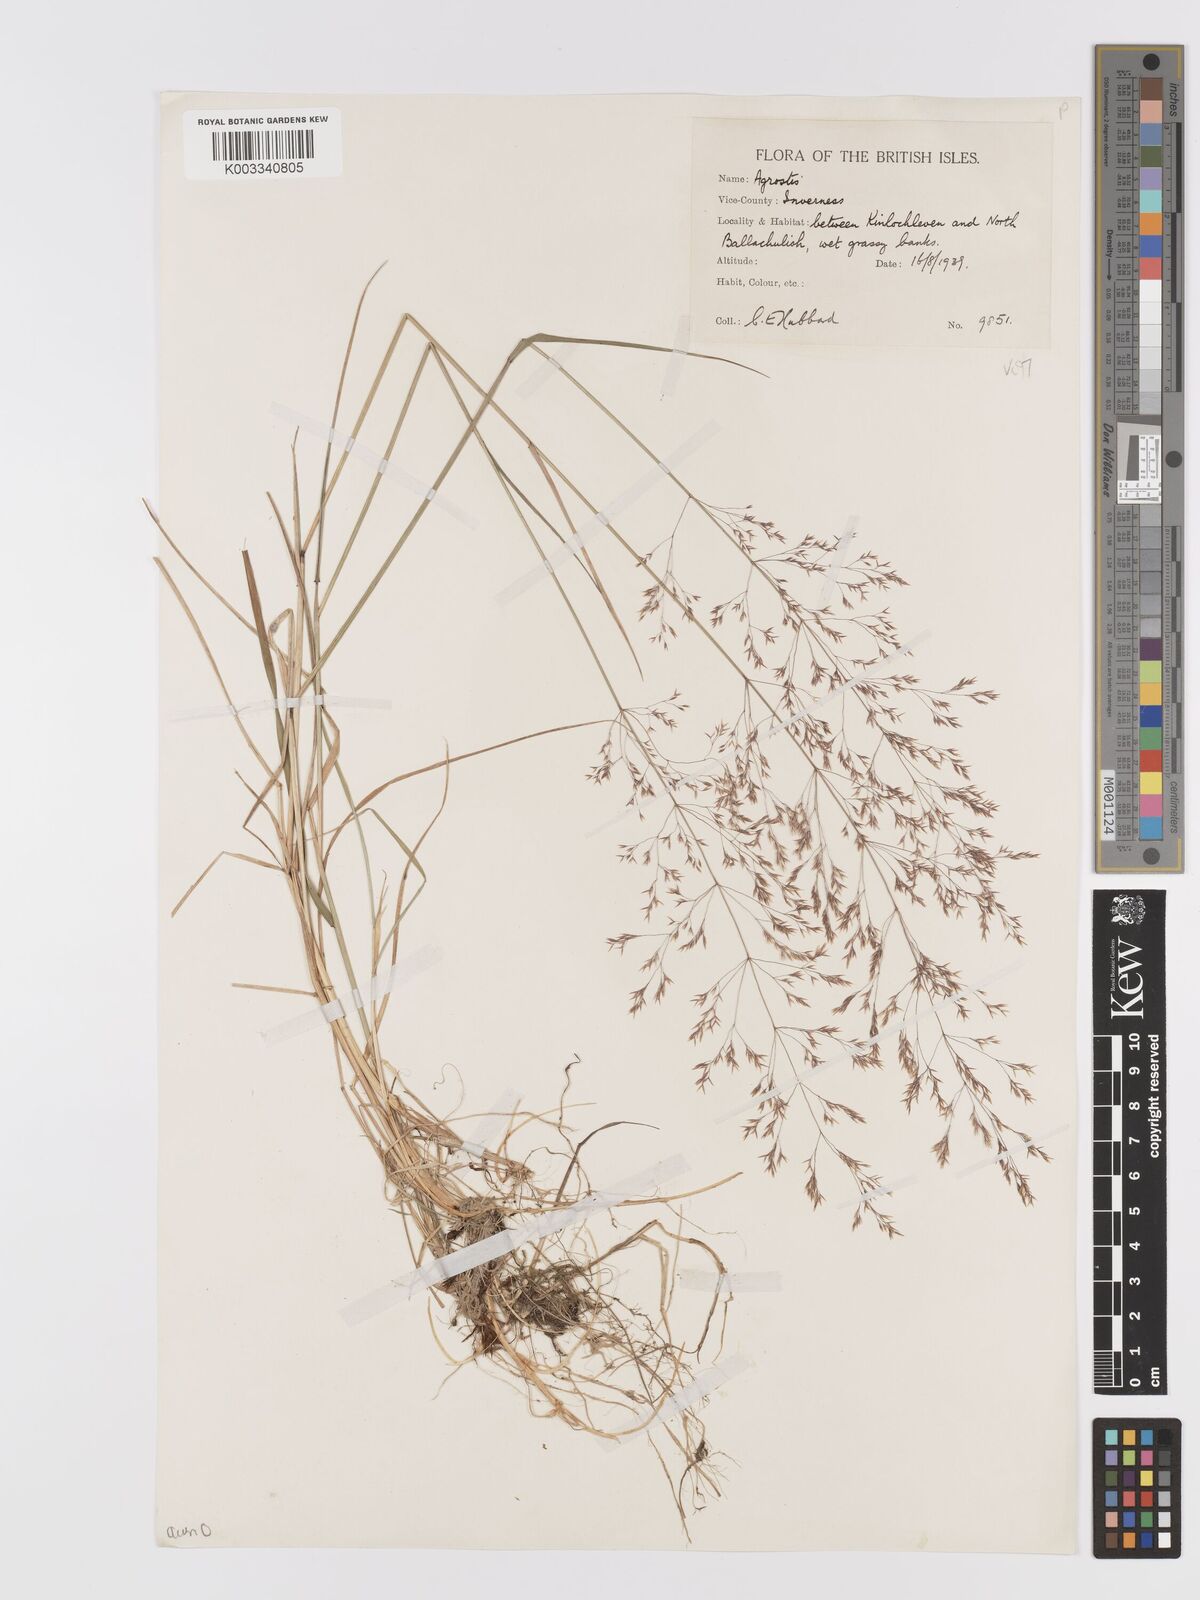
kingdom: Plantae
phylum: Tracheophyta
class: Liliopsida
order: Poales
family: Poaceae
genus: Agrostis
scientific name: Agrostis capillaris
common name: Colonial bentgrass
